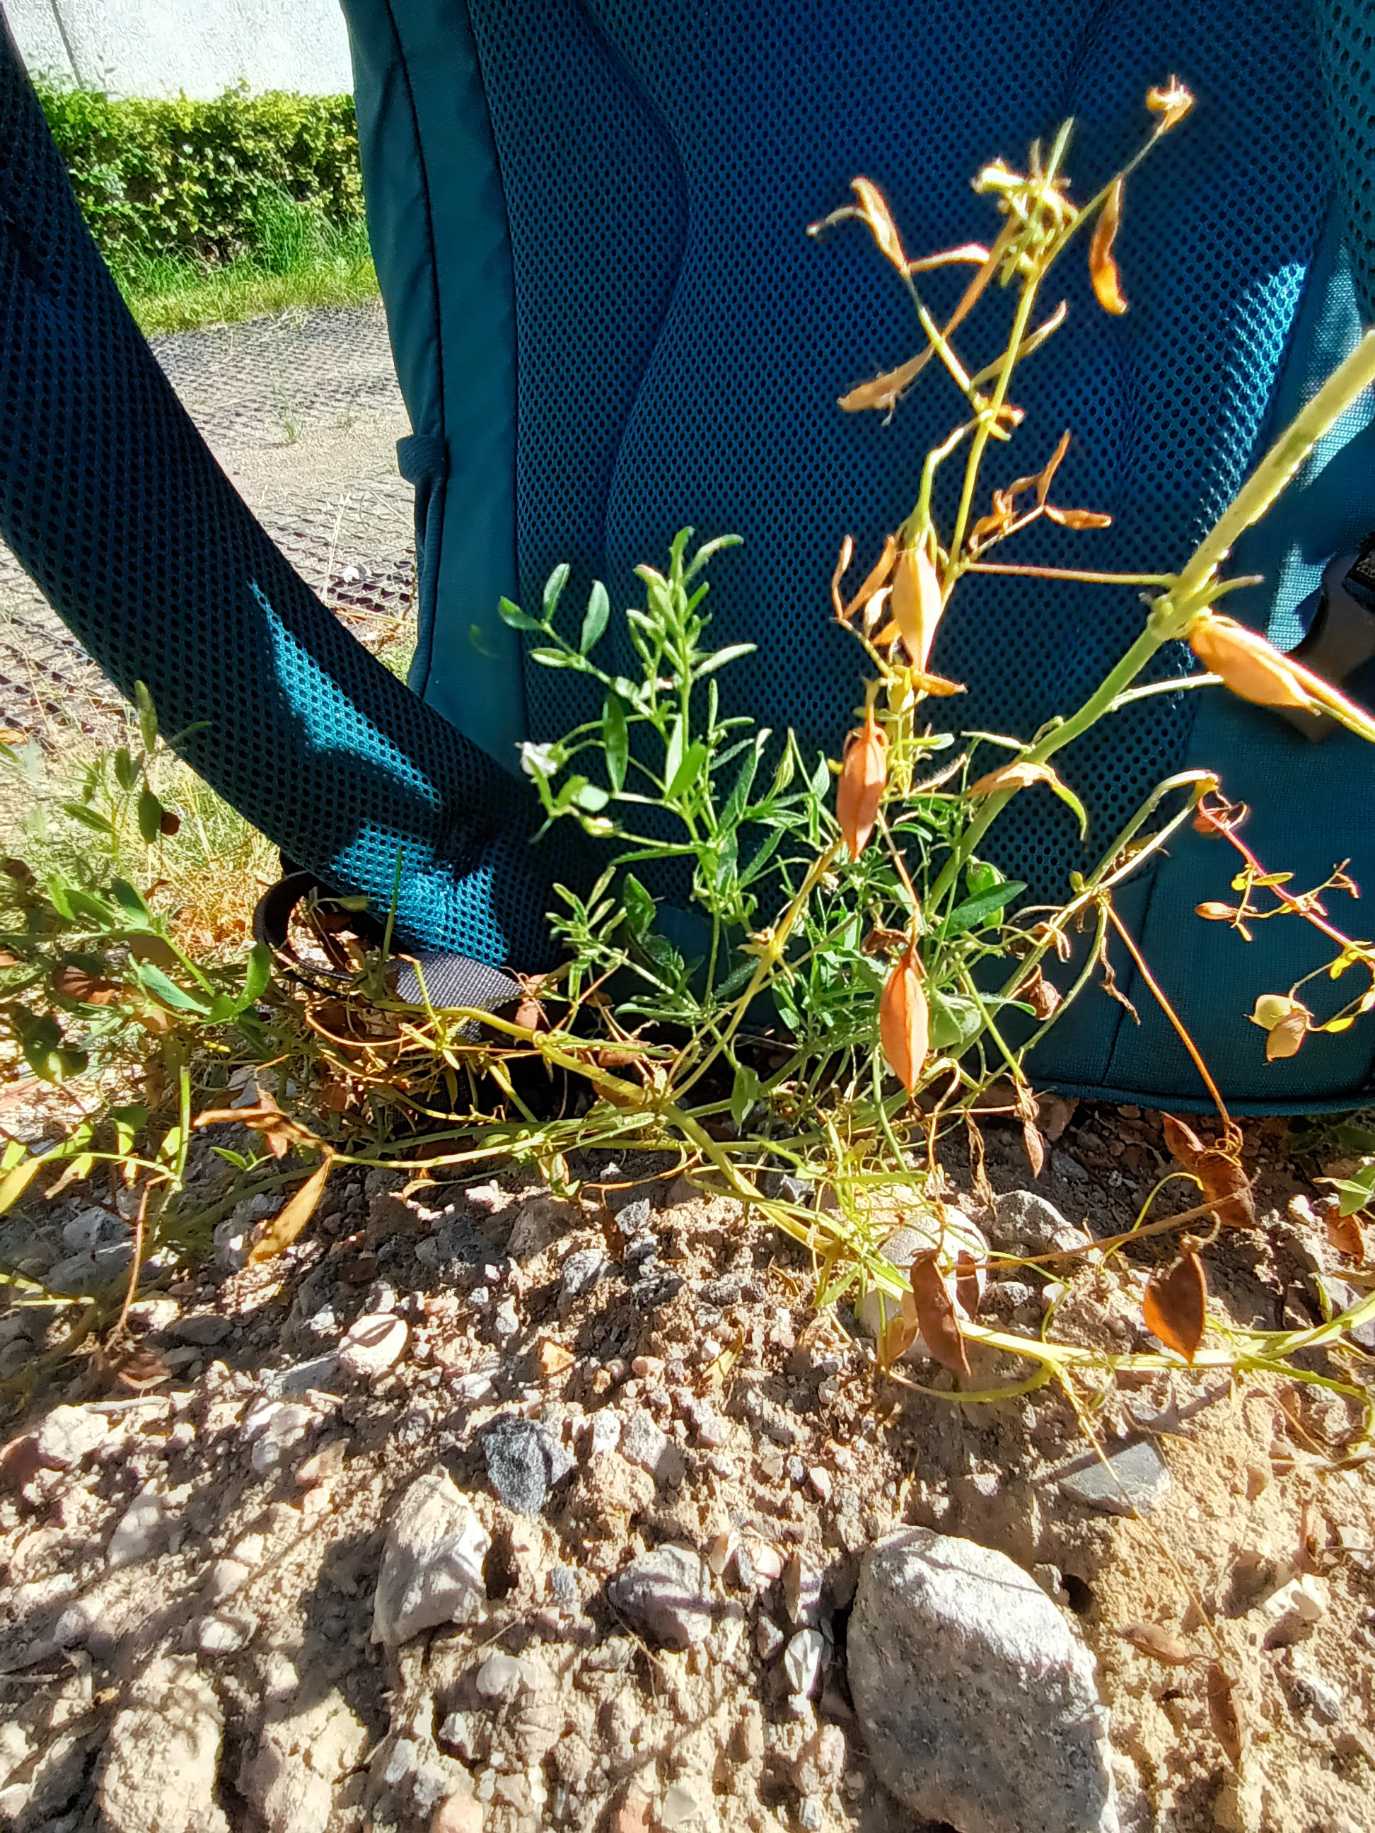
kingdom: Plantae
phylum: Tracheophyta
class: Magnoliopsida
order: Fabales
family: Fabaceae
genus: Vicia
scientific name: Vicia lens
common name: Linse
